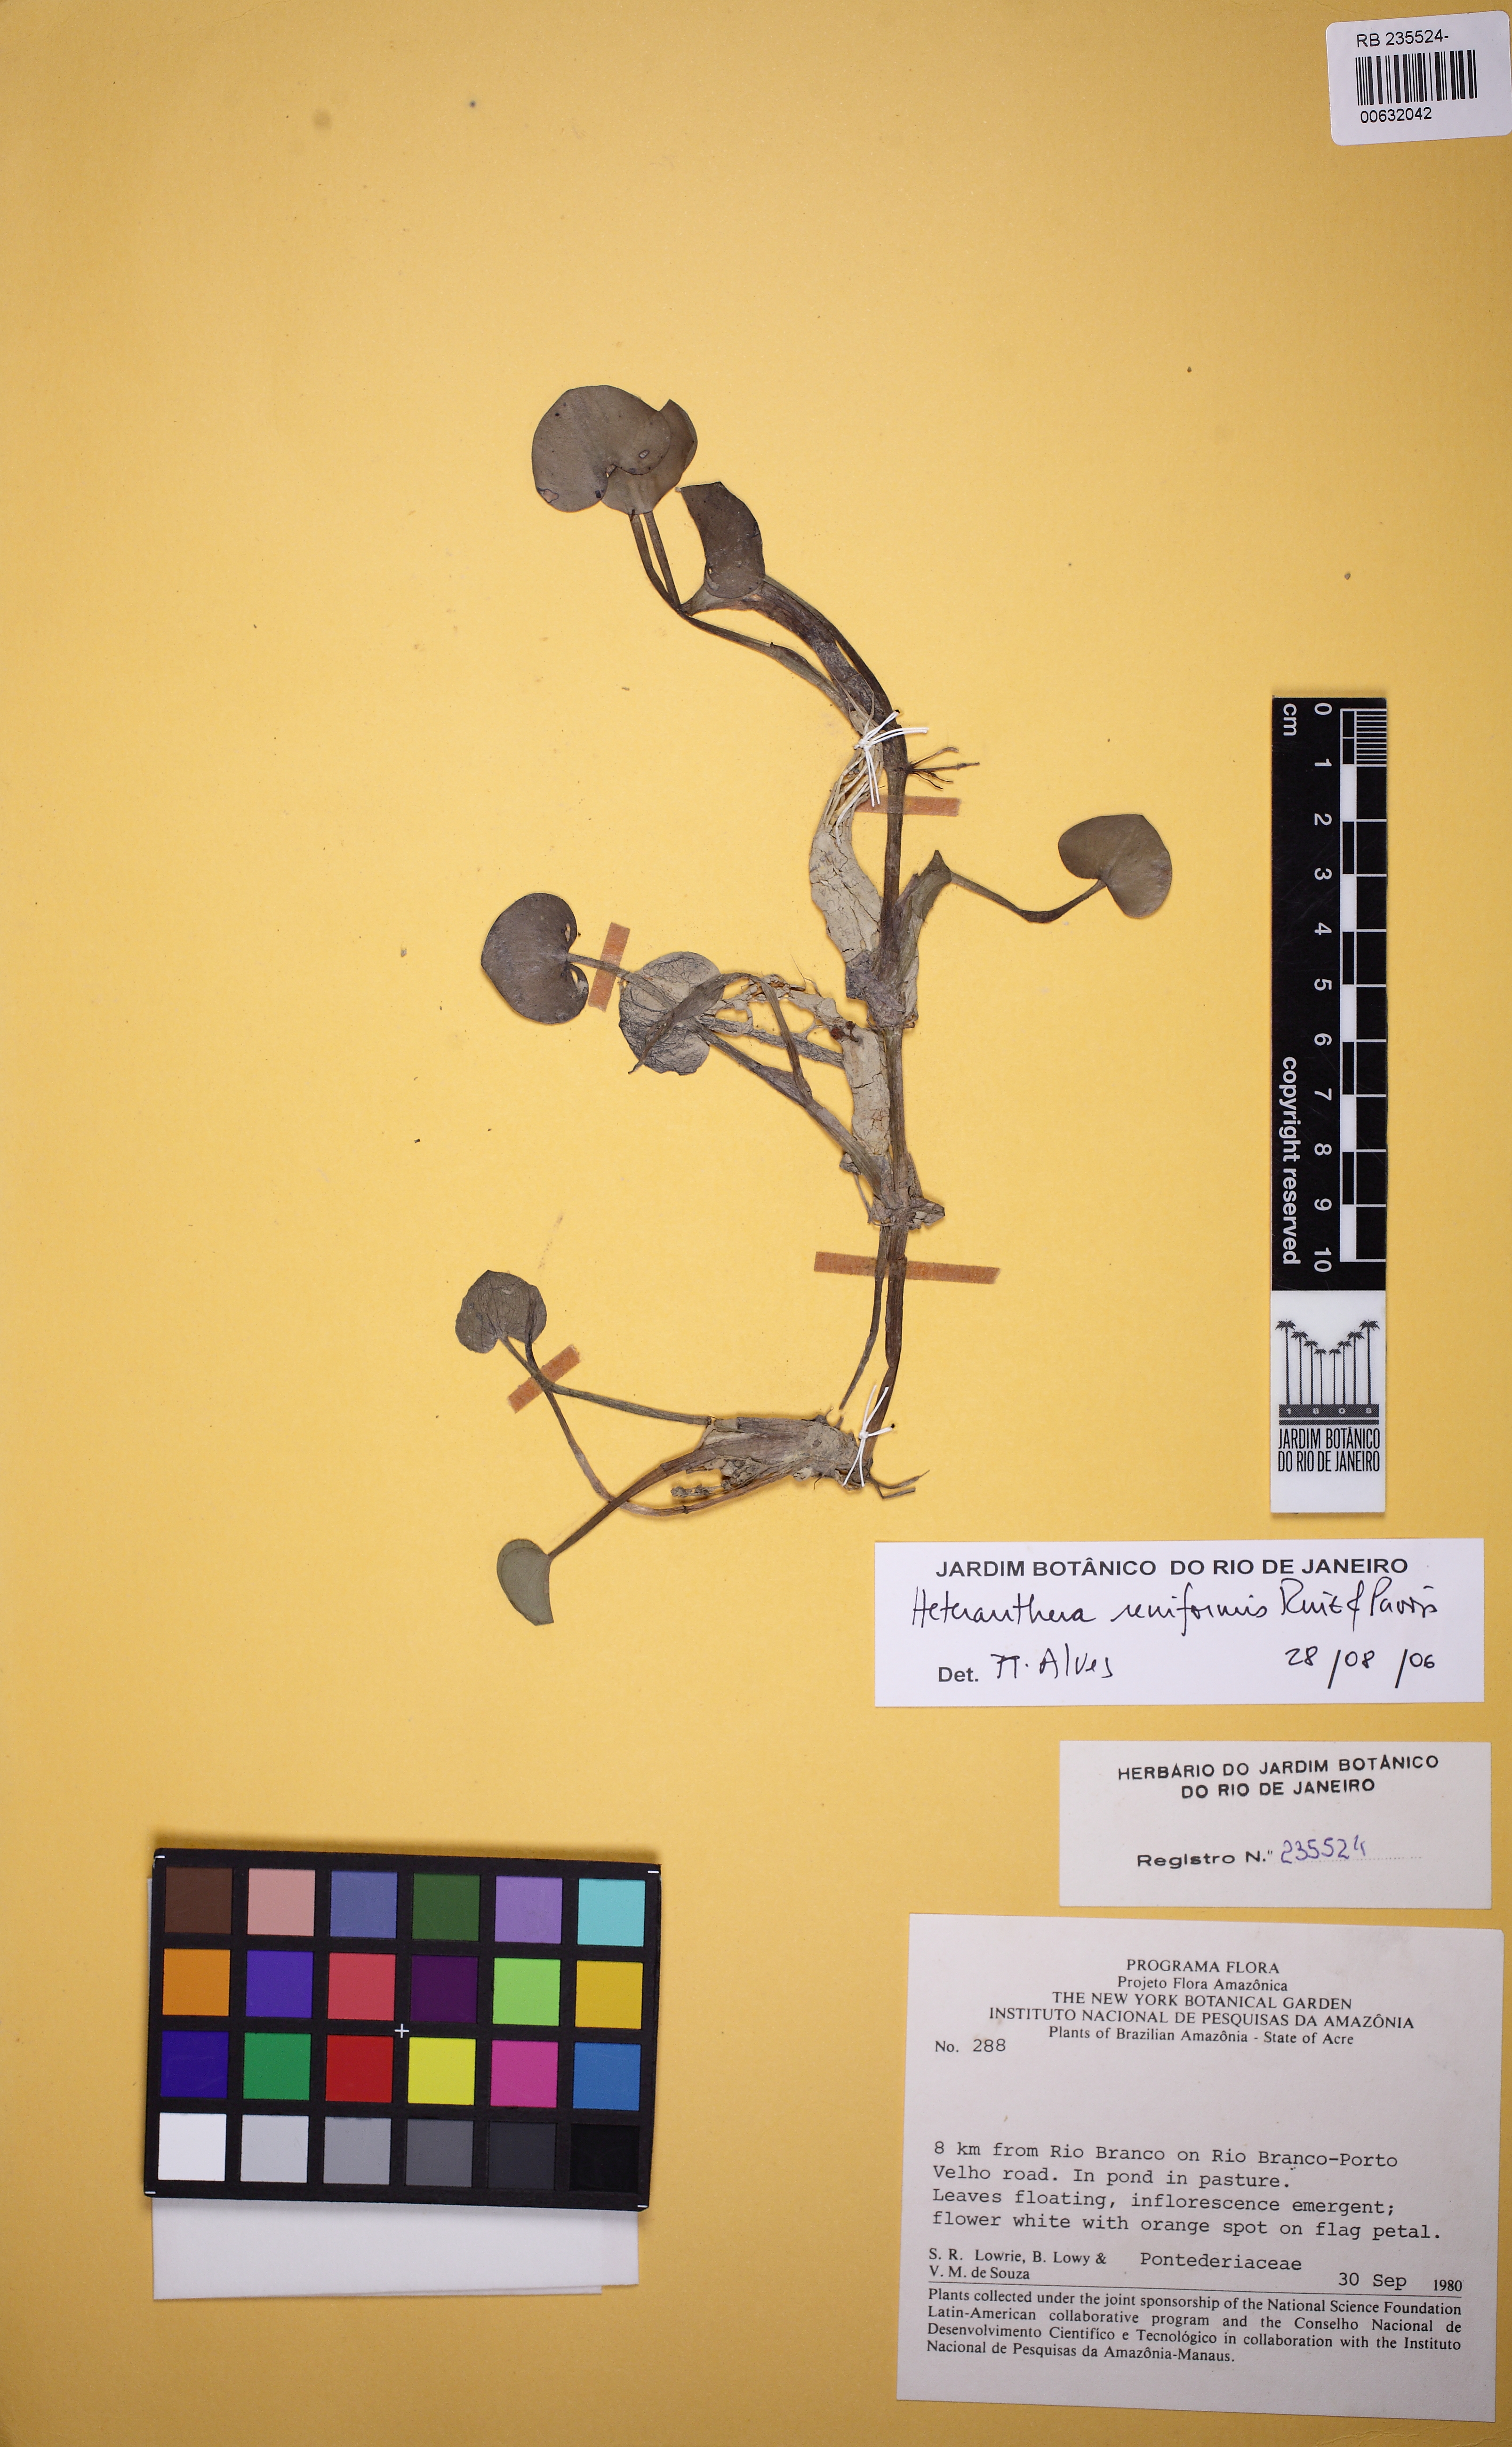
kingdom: Plantae
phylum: Tracheophyta
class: Liliopsida
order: Commelinales
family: Pontederiaceae
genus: Heteranthera
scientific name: Heteranthera reniformis
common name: Kidneyleaf mudplantain
